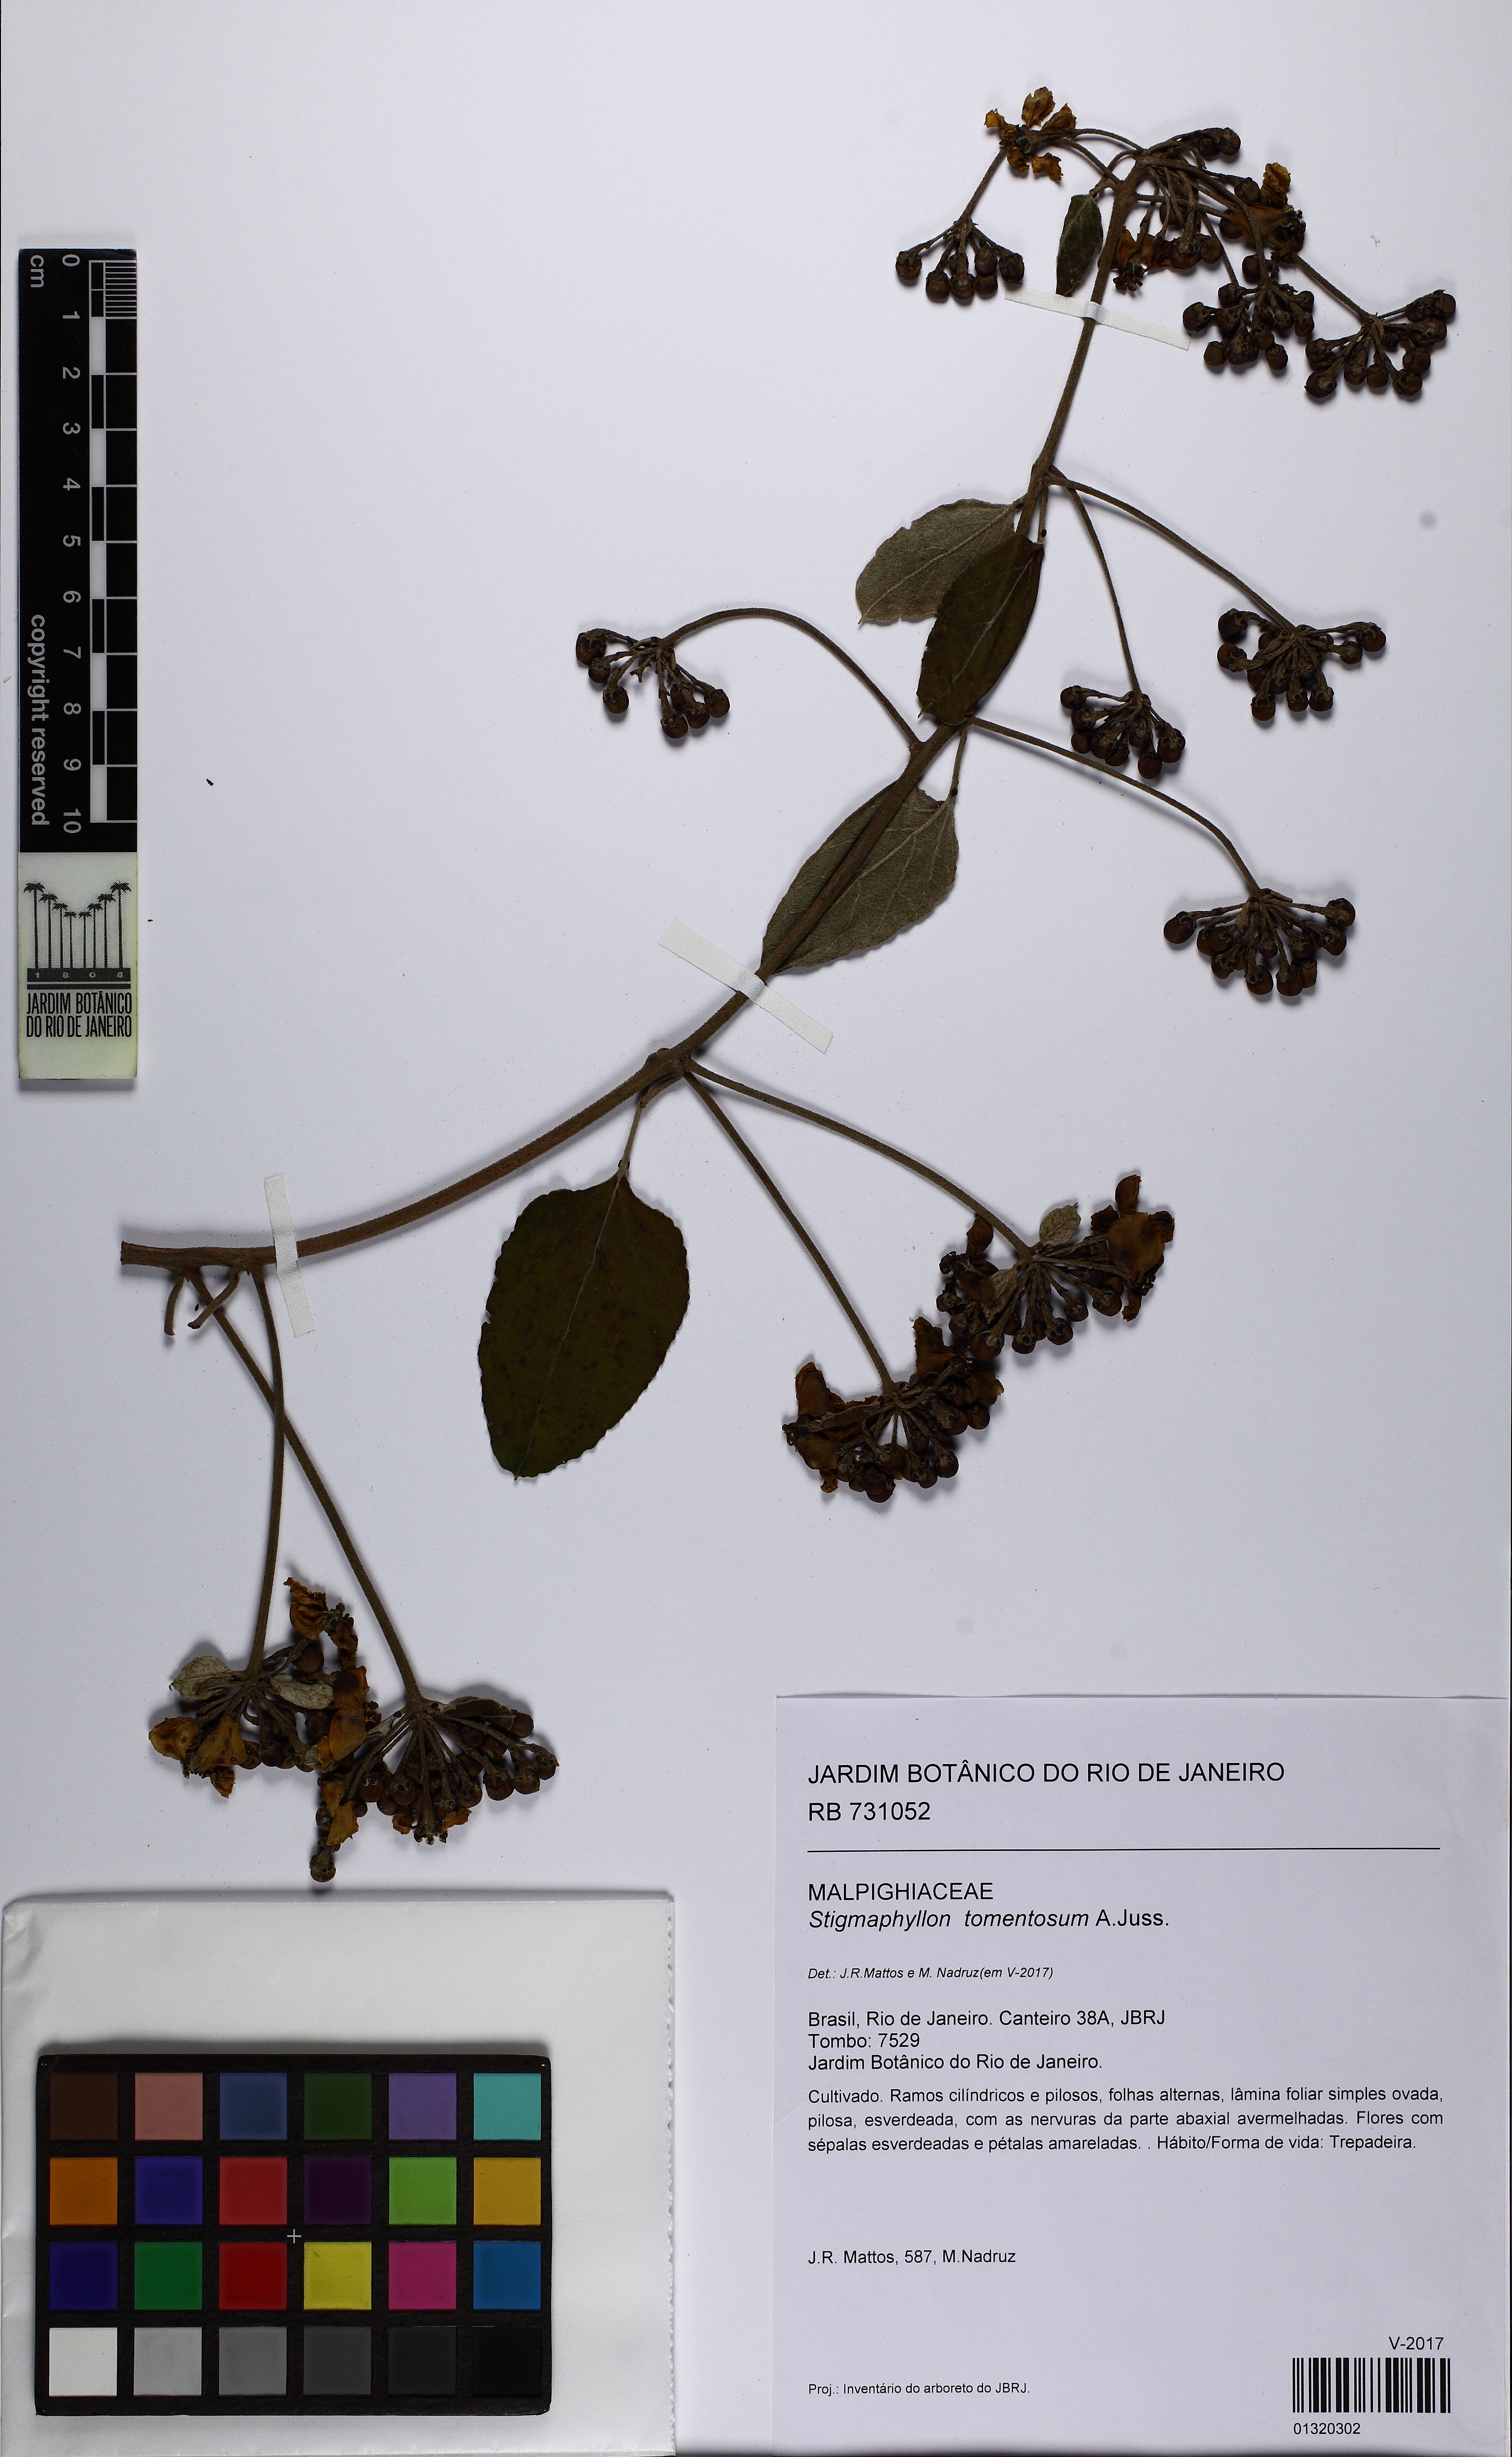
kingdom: Plantae
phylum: Tracheophyta
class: Magnoliopsida
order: Malpighiales
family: Malpighiaceae
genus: Stigmaphyllon
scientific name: Stigmaphyllon tomentosum
